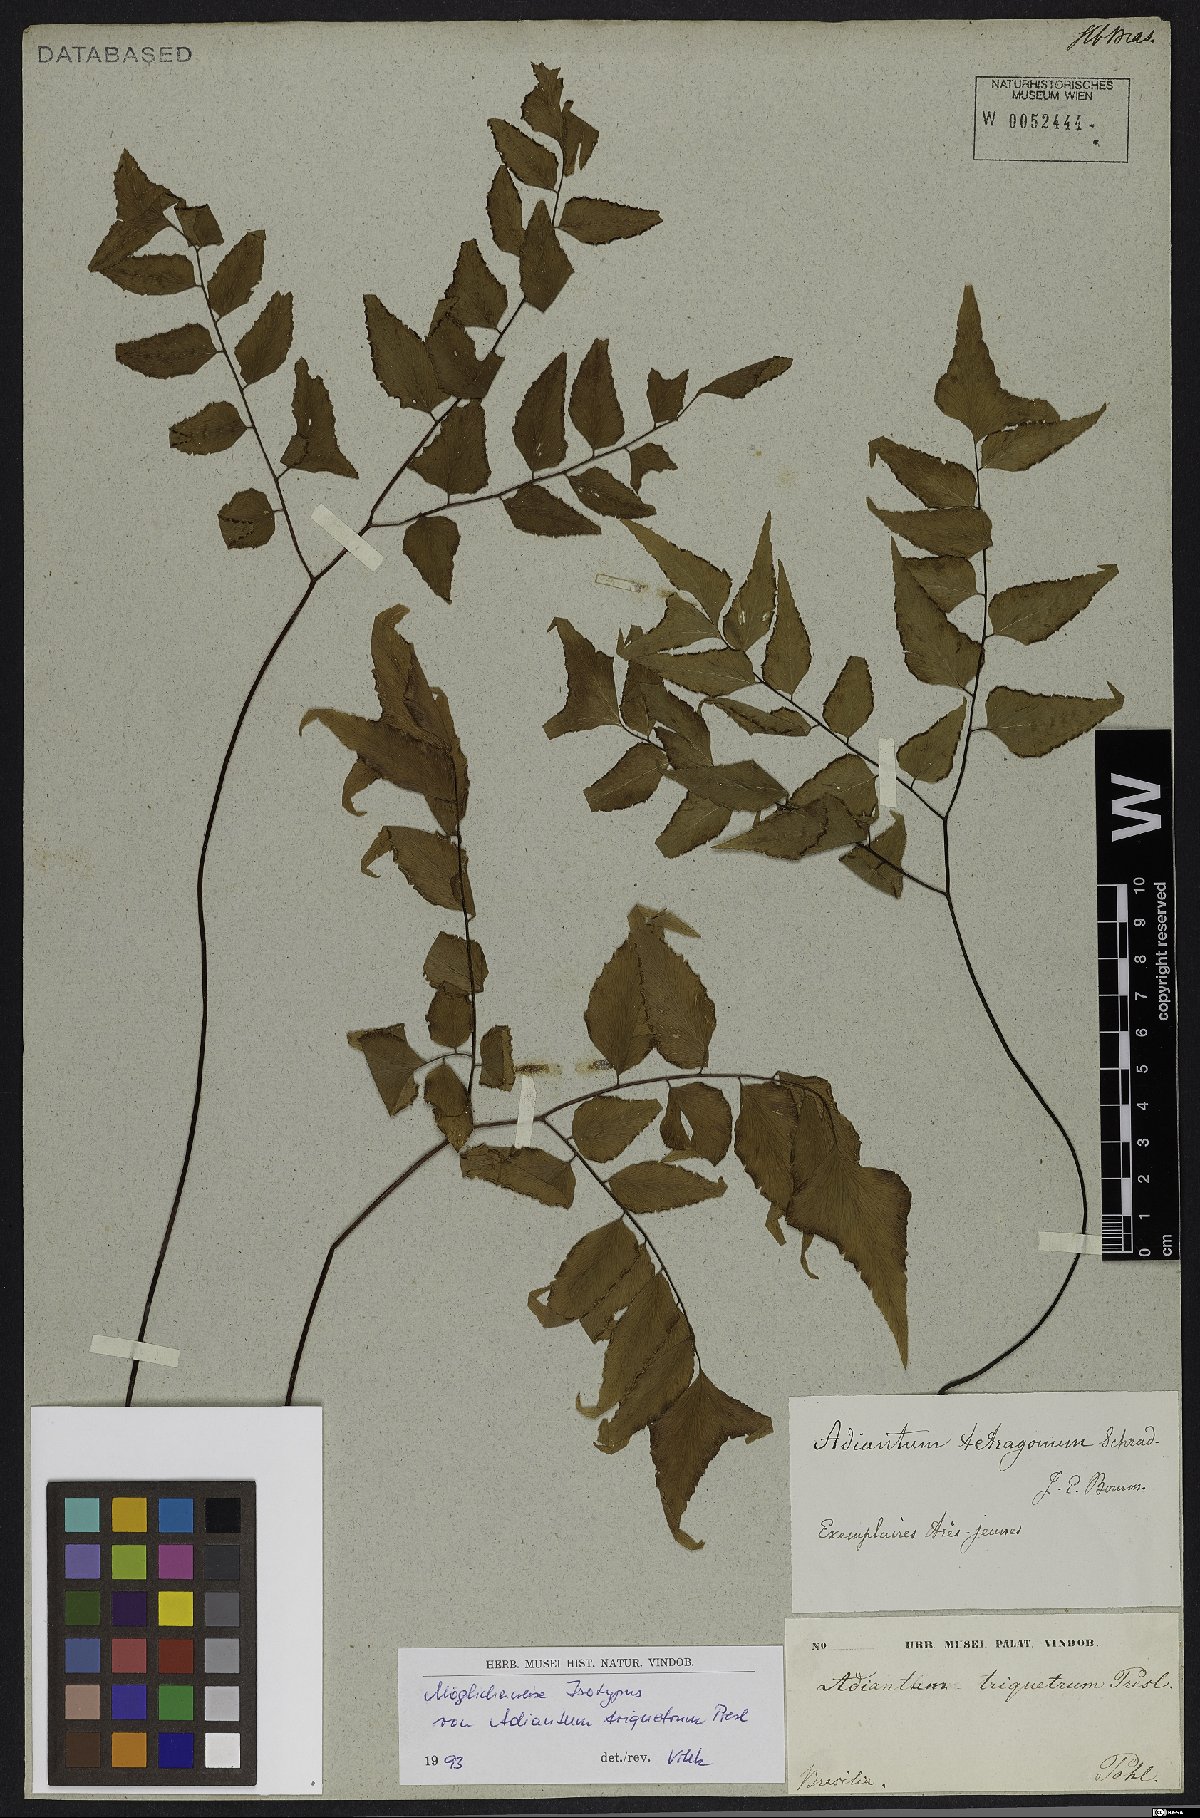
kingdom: Plantae
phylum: Tracheophyta
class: Polypodiopsida
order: Polypodiales
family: Pteridaceae
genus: Adiantum
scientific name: Adiantum tetragonum
